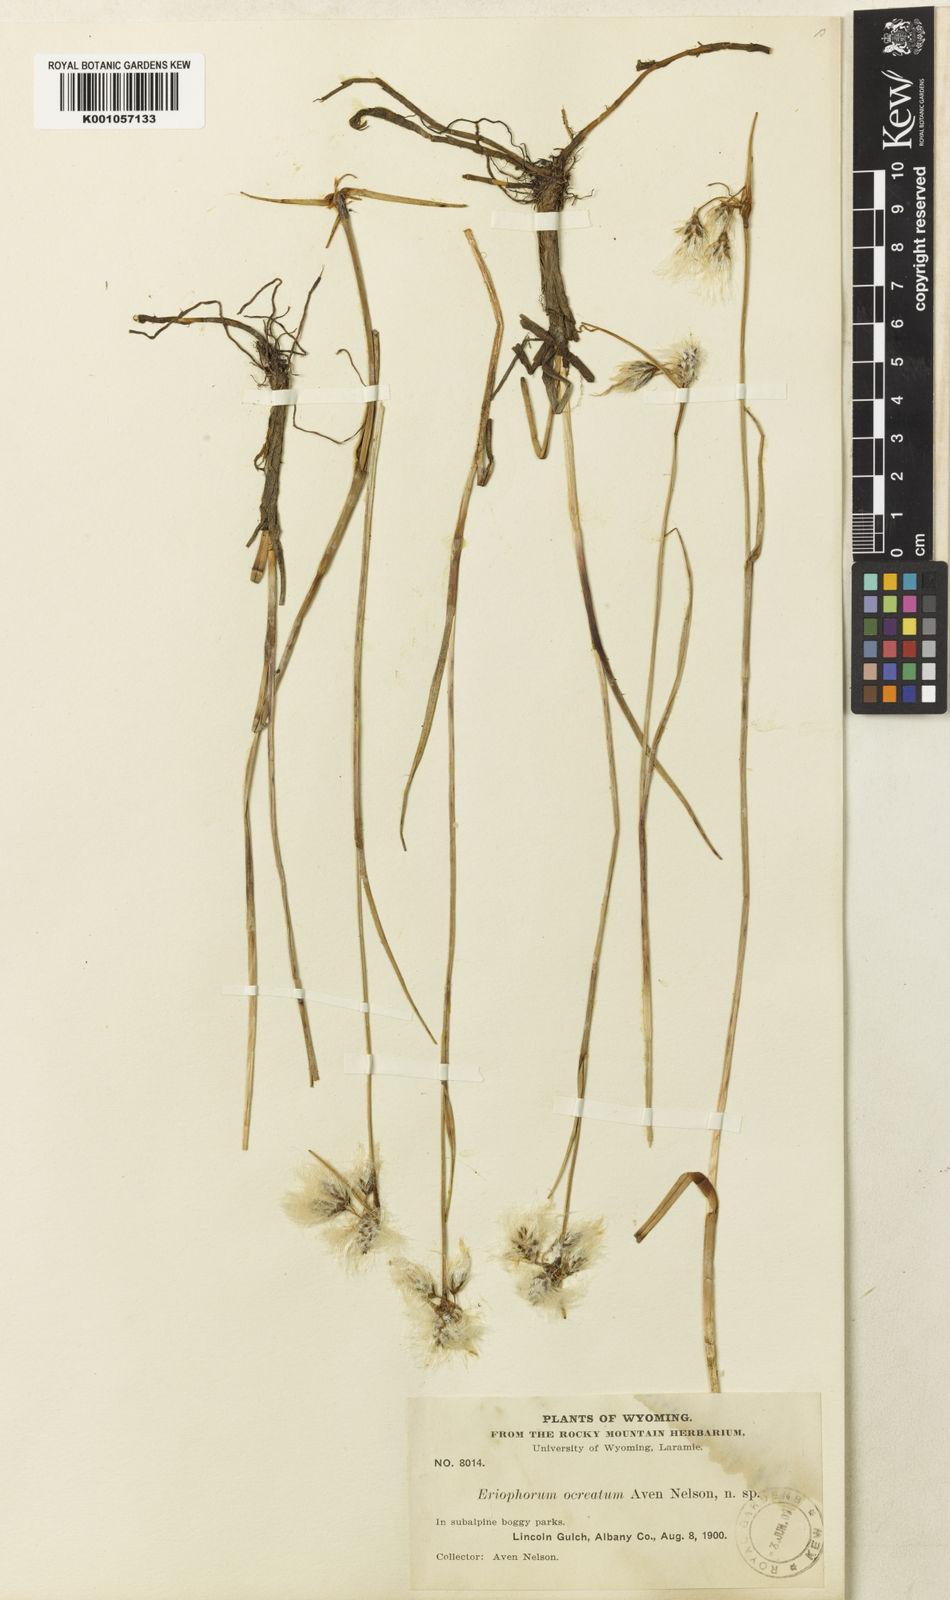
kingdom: Plantae
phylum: Tracheophyta
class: Liliopsida
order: Poales
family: Cyperaceae
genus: Eriophorum
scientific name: Eriophorum angustifolium
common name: Common cottongrass
